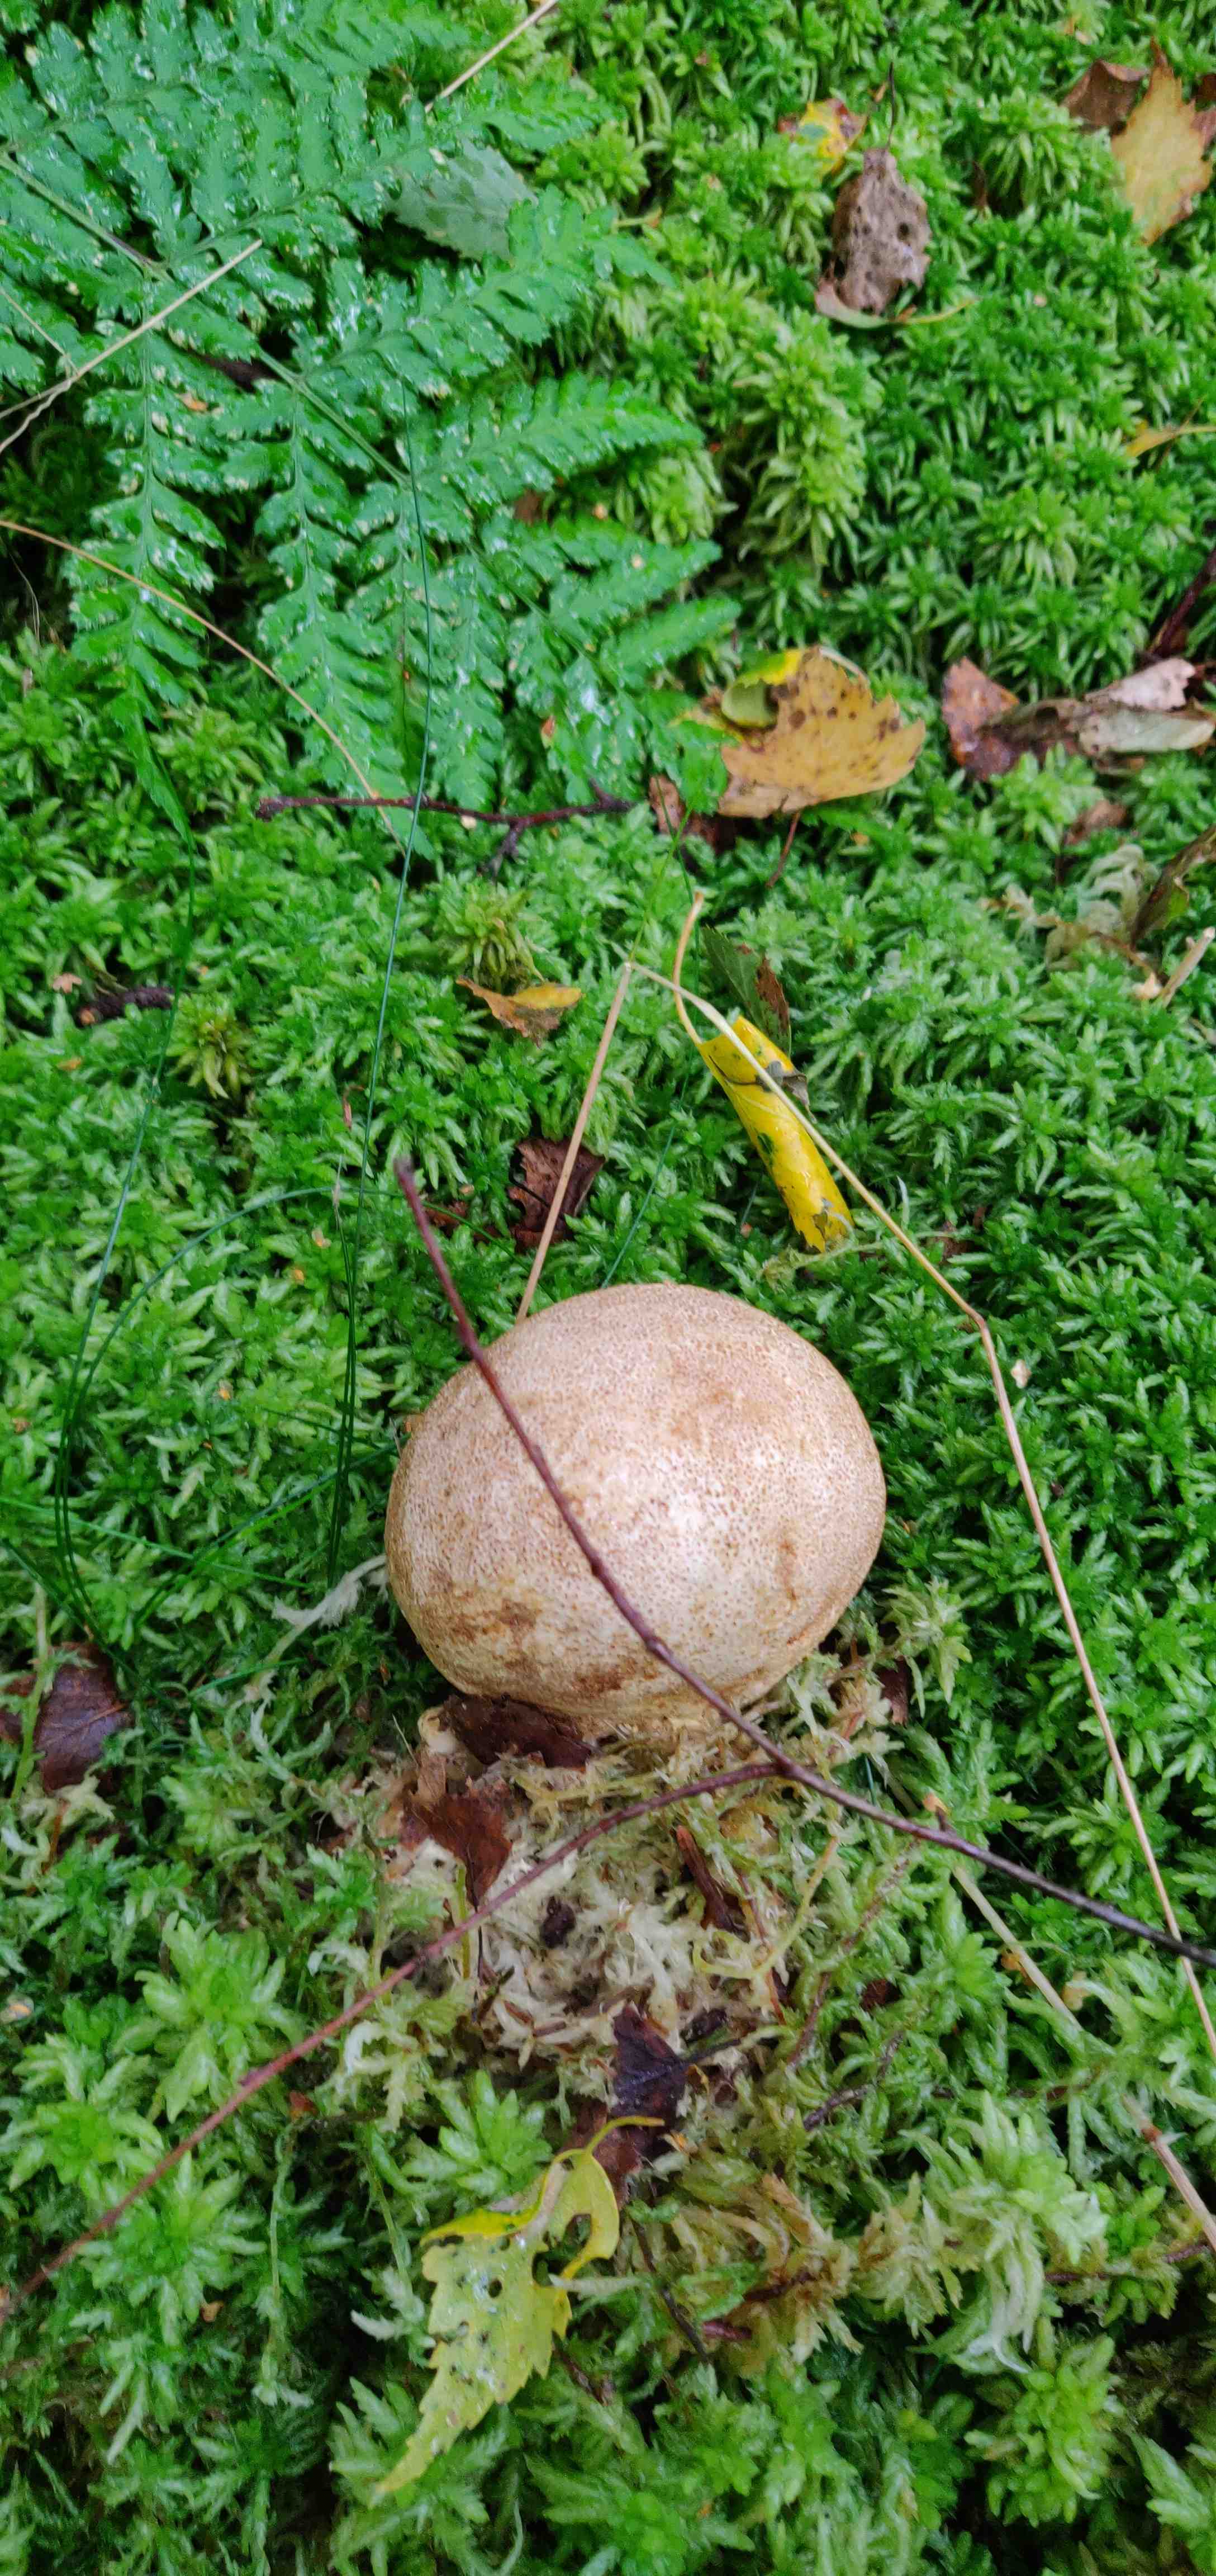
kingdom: Fungi
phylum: Basidiomycota
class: Agaricomycetes
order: Boletales
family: Sclerodermataceae
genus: Scleroderma
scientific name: Scleroderma citrinum
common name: almindelig bruskbold
